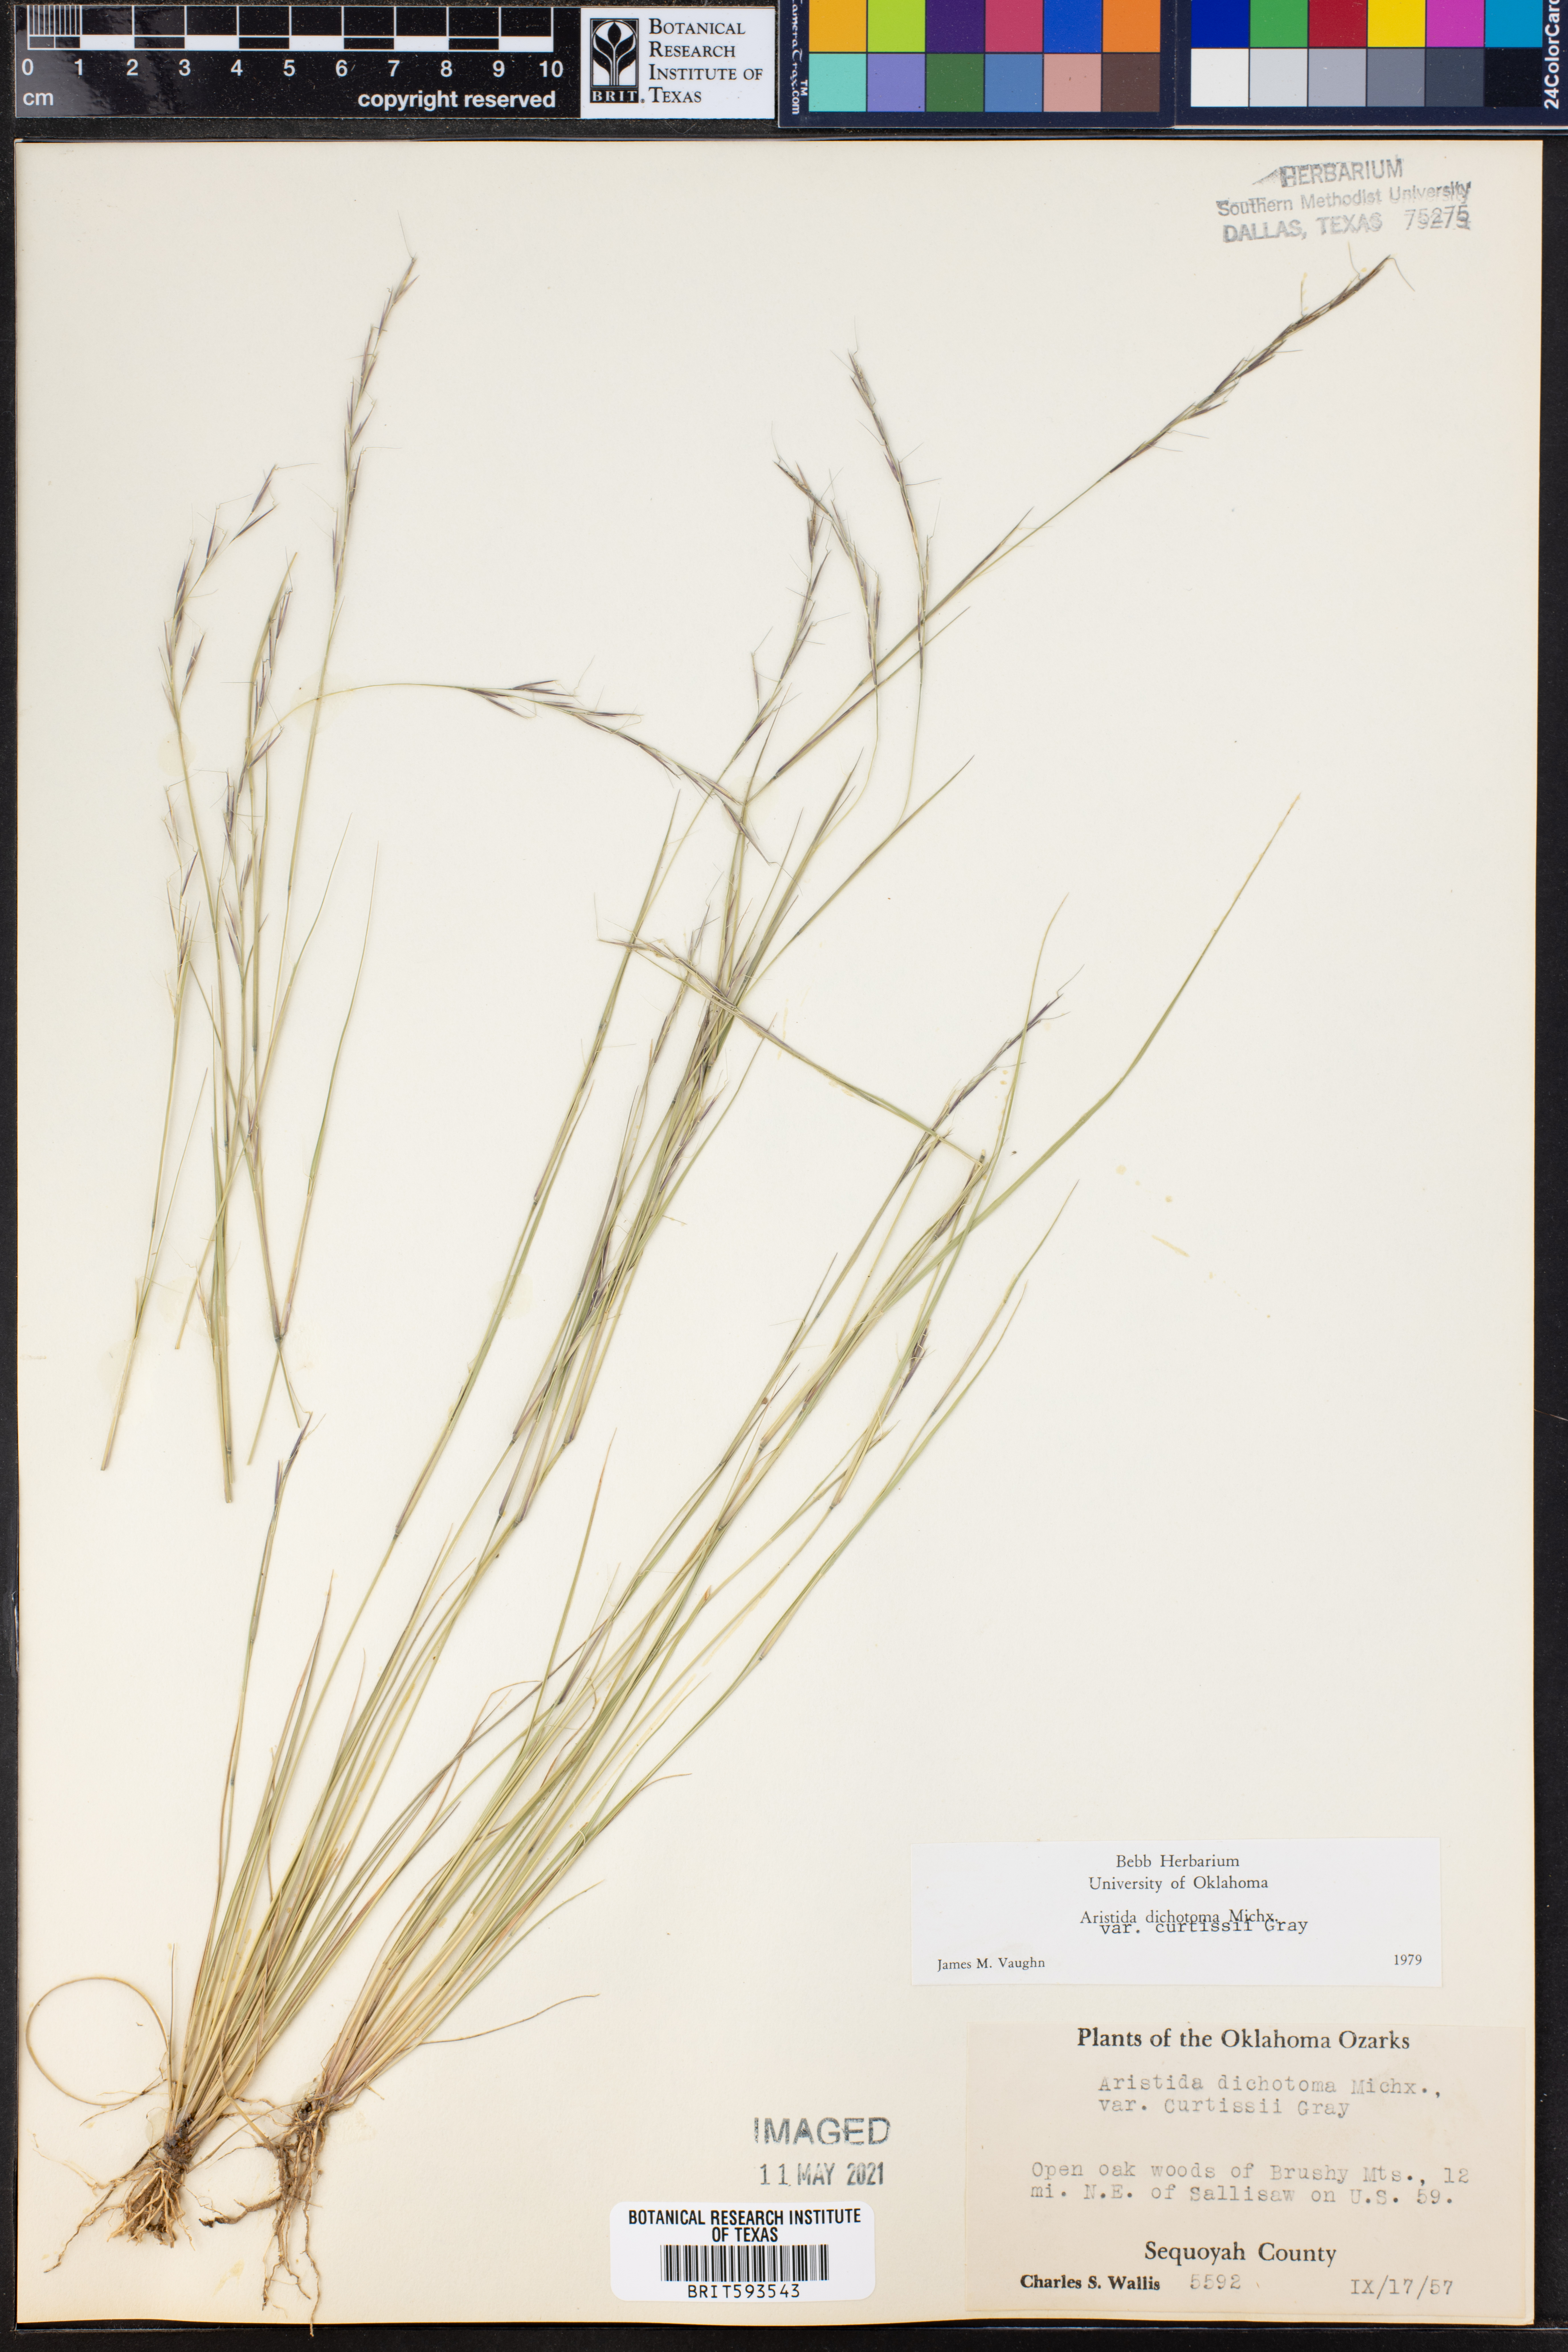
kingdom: Plantae
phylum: Tracheophyta
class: Liliopsida
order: Poales
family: Poaceae
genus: Aristida
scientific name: Aristida curtissii
